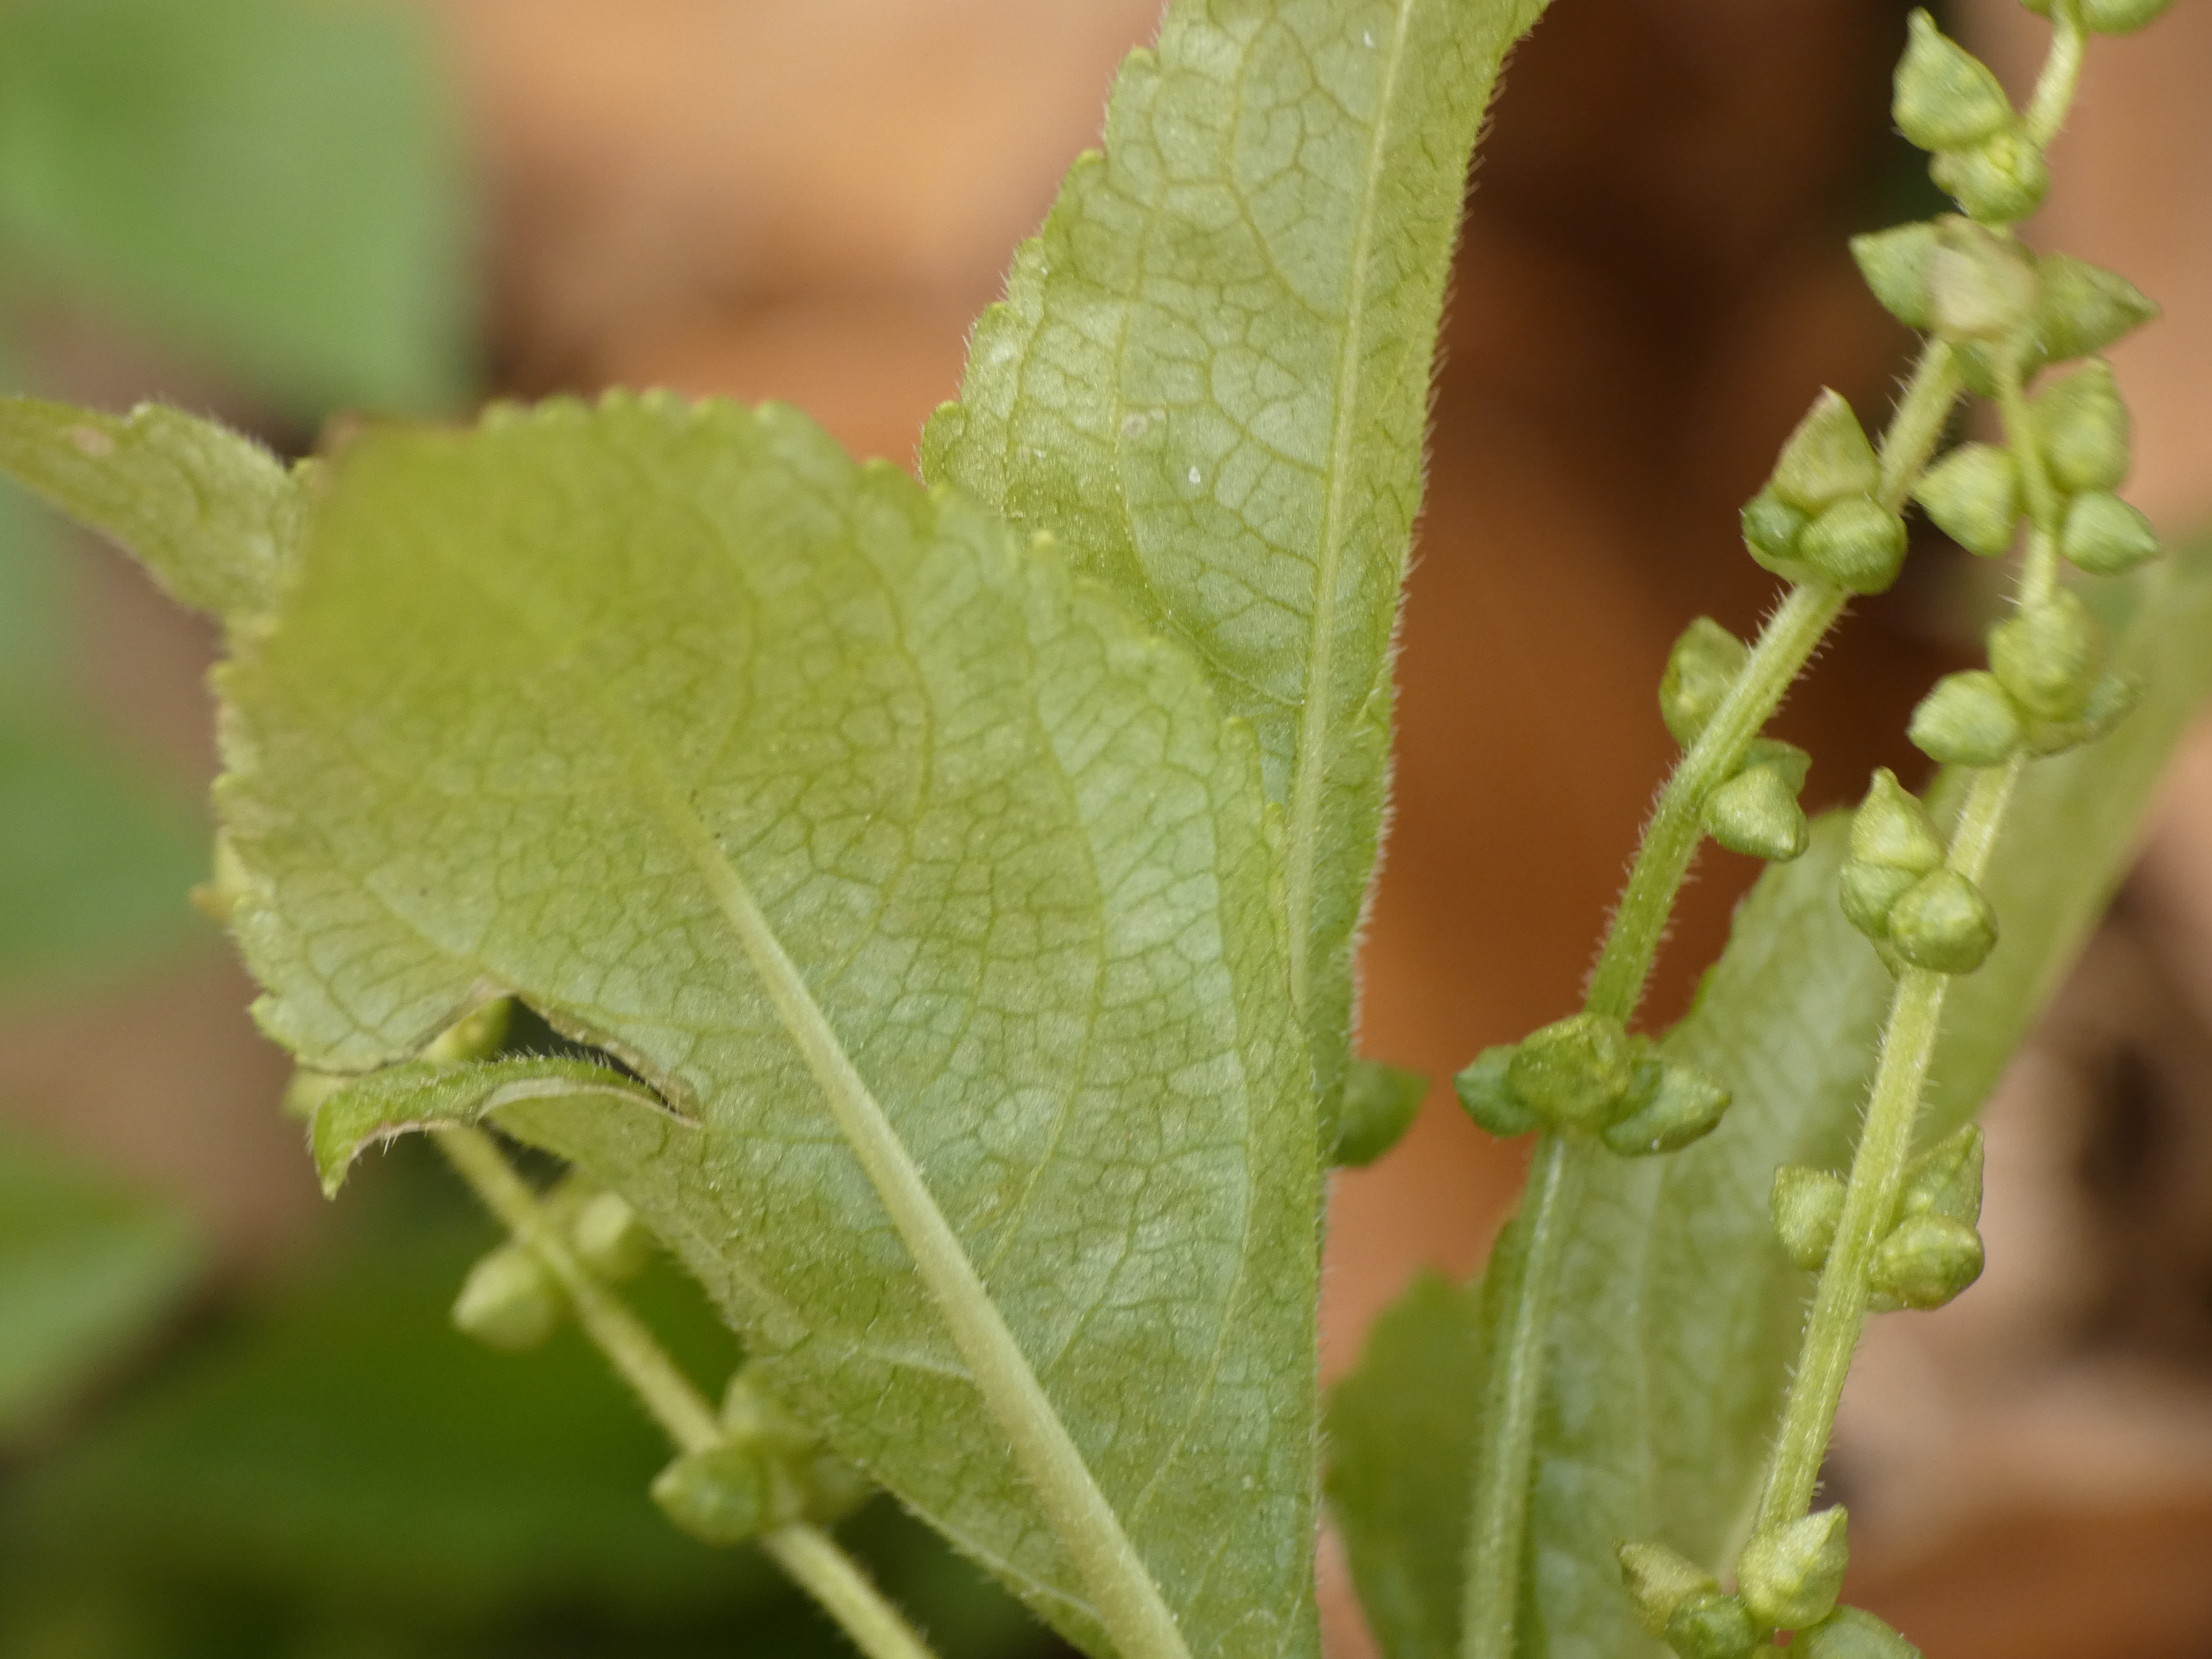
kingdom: Plantae
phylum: Tracheophyta
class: Magnoliopsida
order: Malpighiales
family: Euphorbiaceae
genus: Mercurialis
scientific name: Mercurialis perennis
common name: Almindelig bingelurt
